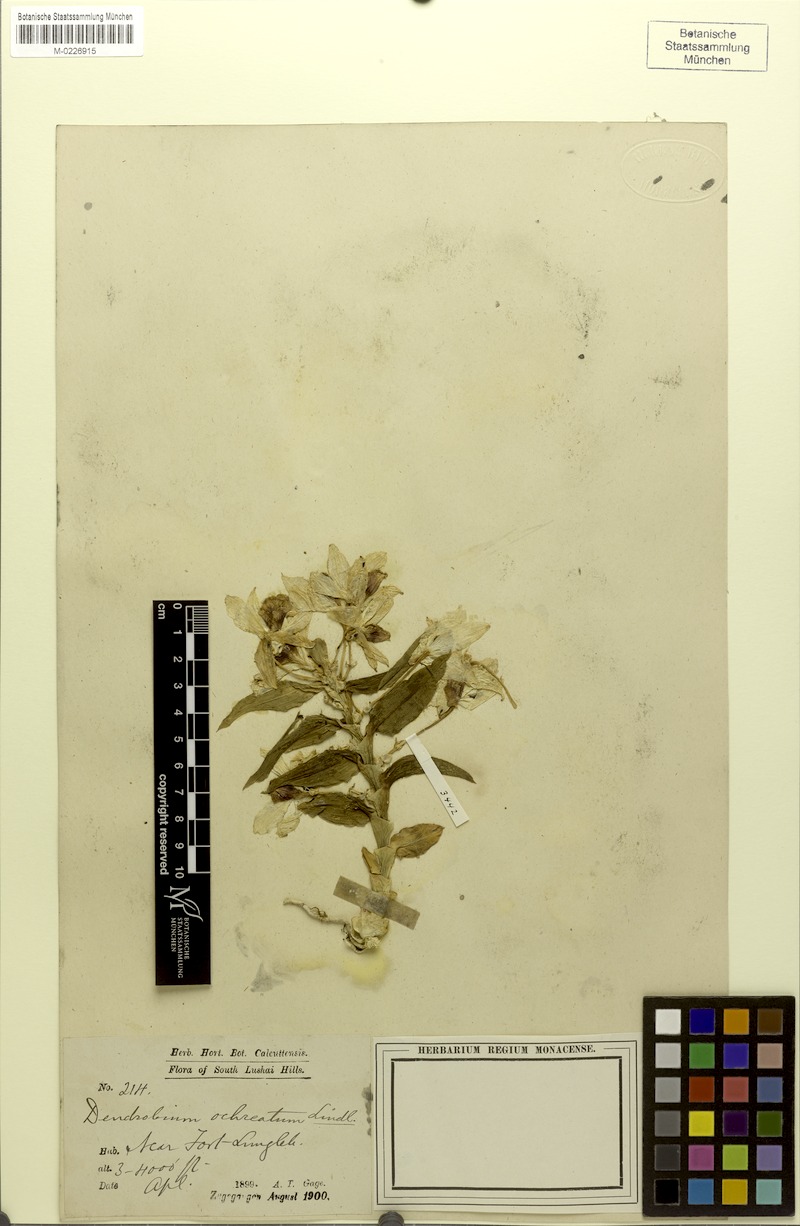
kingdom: Plantae
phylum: Tracheophyta
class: Liliopsida
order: Asparagales
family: Orchidaceae
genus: Dendrobium
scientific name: Dendrobium ochreatum
